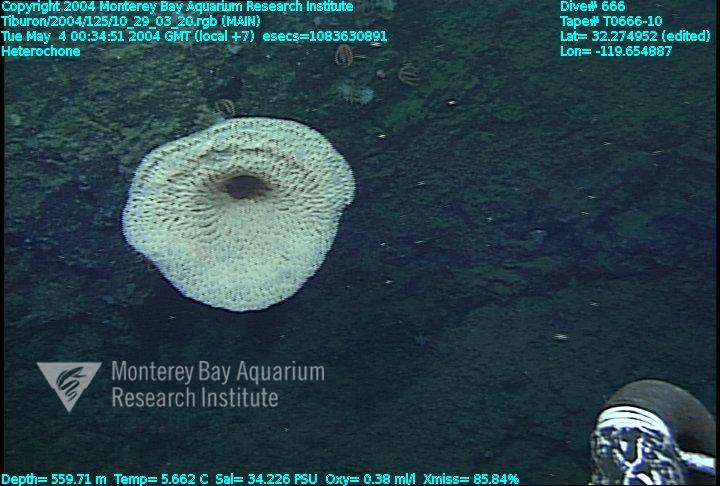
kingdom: Animalia
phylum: Porifera
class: Hexactinellida
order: Sceptrulophora
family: Aphrocallistidae
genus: Heterochone
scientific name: Heterochone
